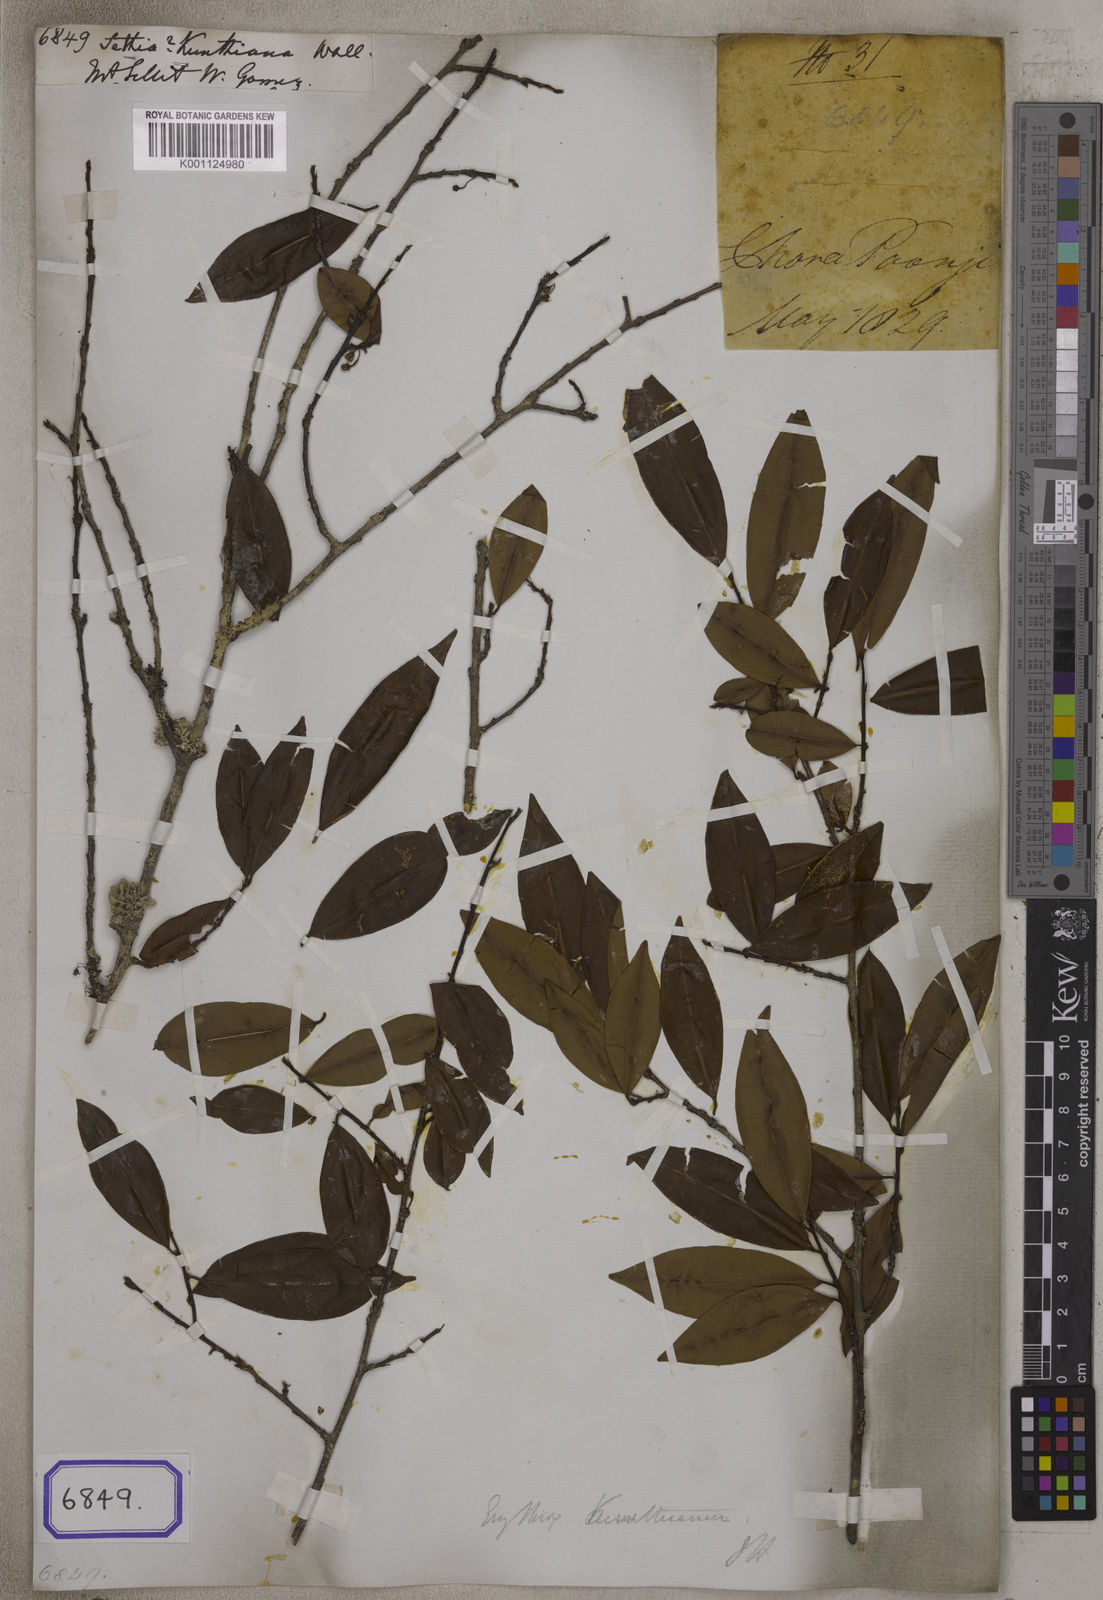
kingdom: Plantae
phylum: Tracheophyta
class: Magnoliopsida
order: Malpighiales
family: Erythroxylaceae
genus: Erythroxylum
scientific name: Erythroxylum sinense
